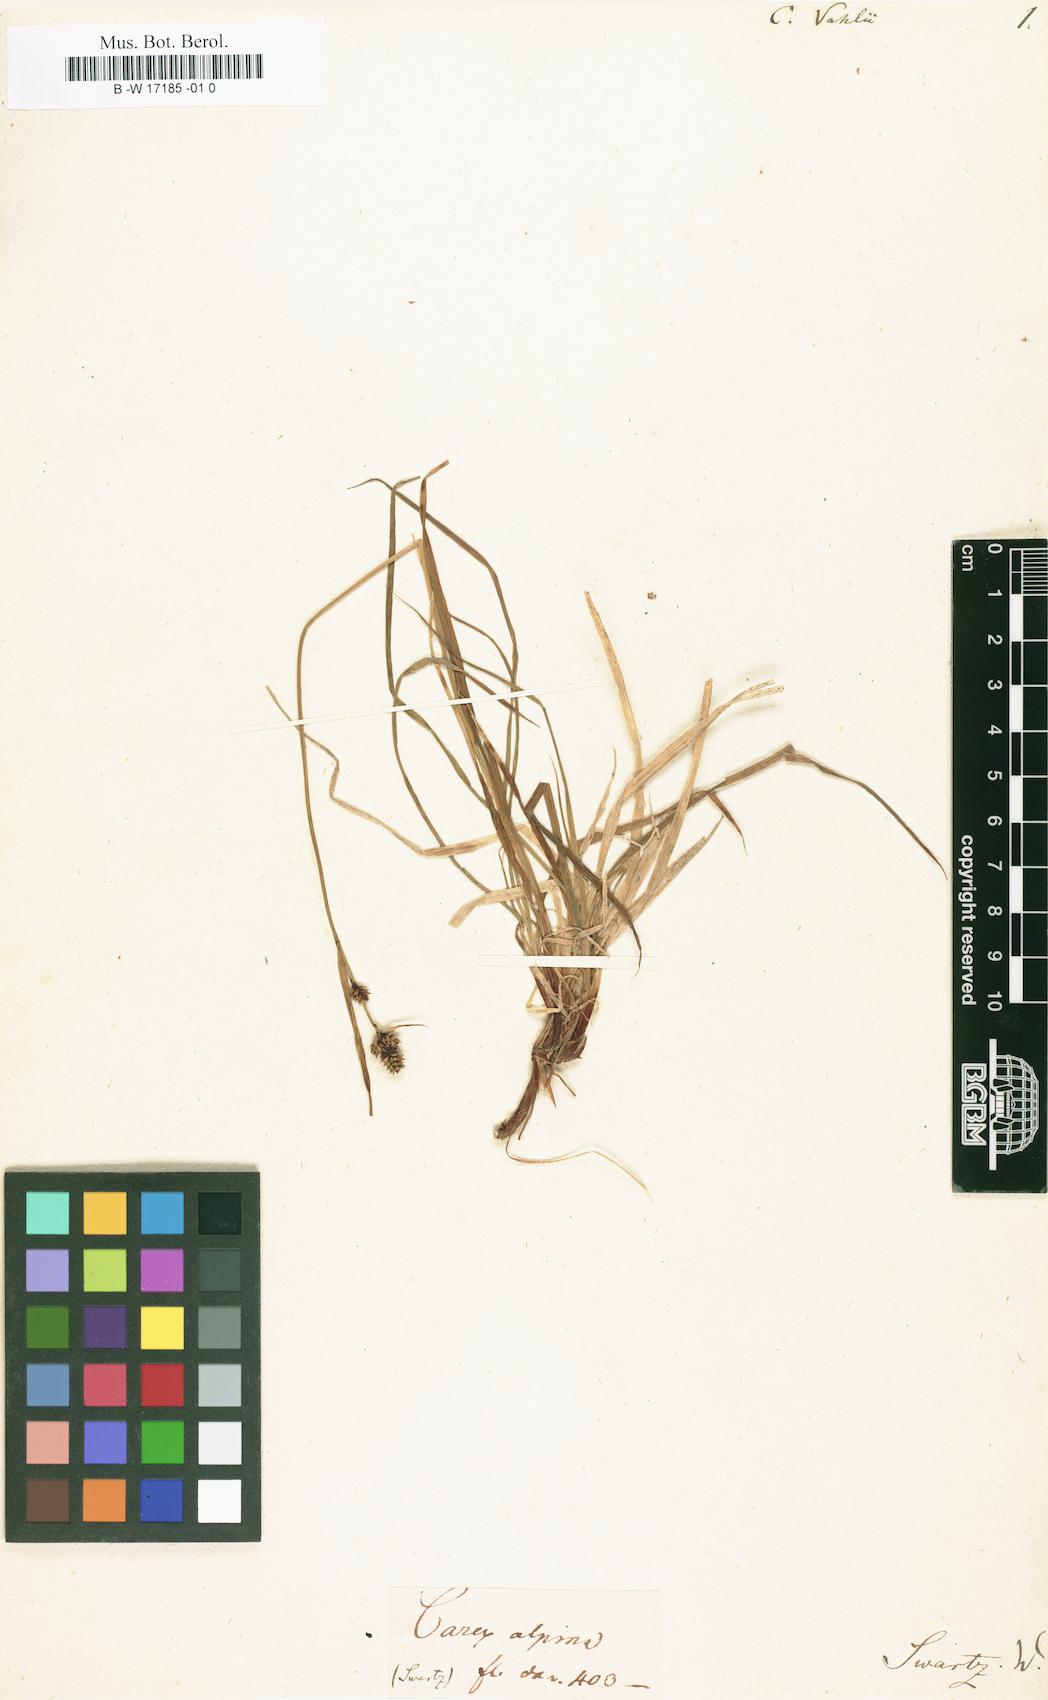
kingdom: Plantae
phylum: Tracheophyta
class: Liliopsida
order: Poales
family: Cyperaceae
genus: Carex
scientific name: Carex norvegica
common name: Close-headed alpine-sedge
